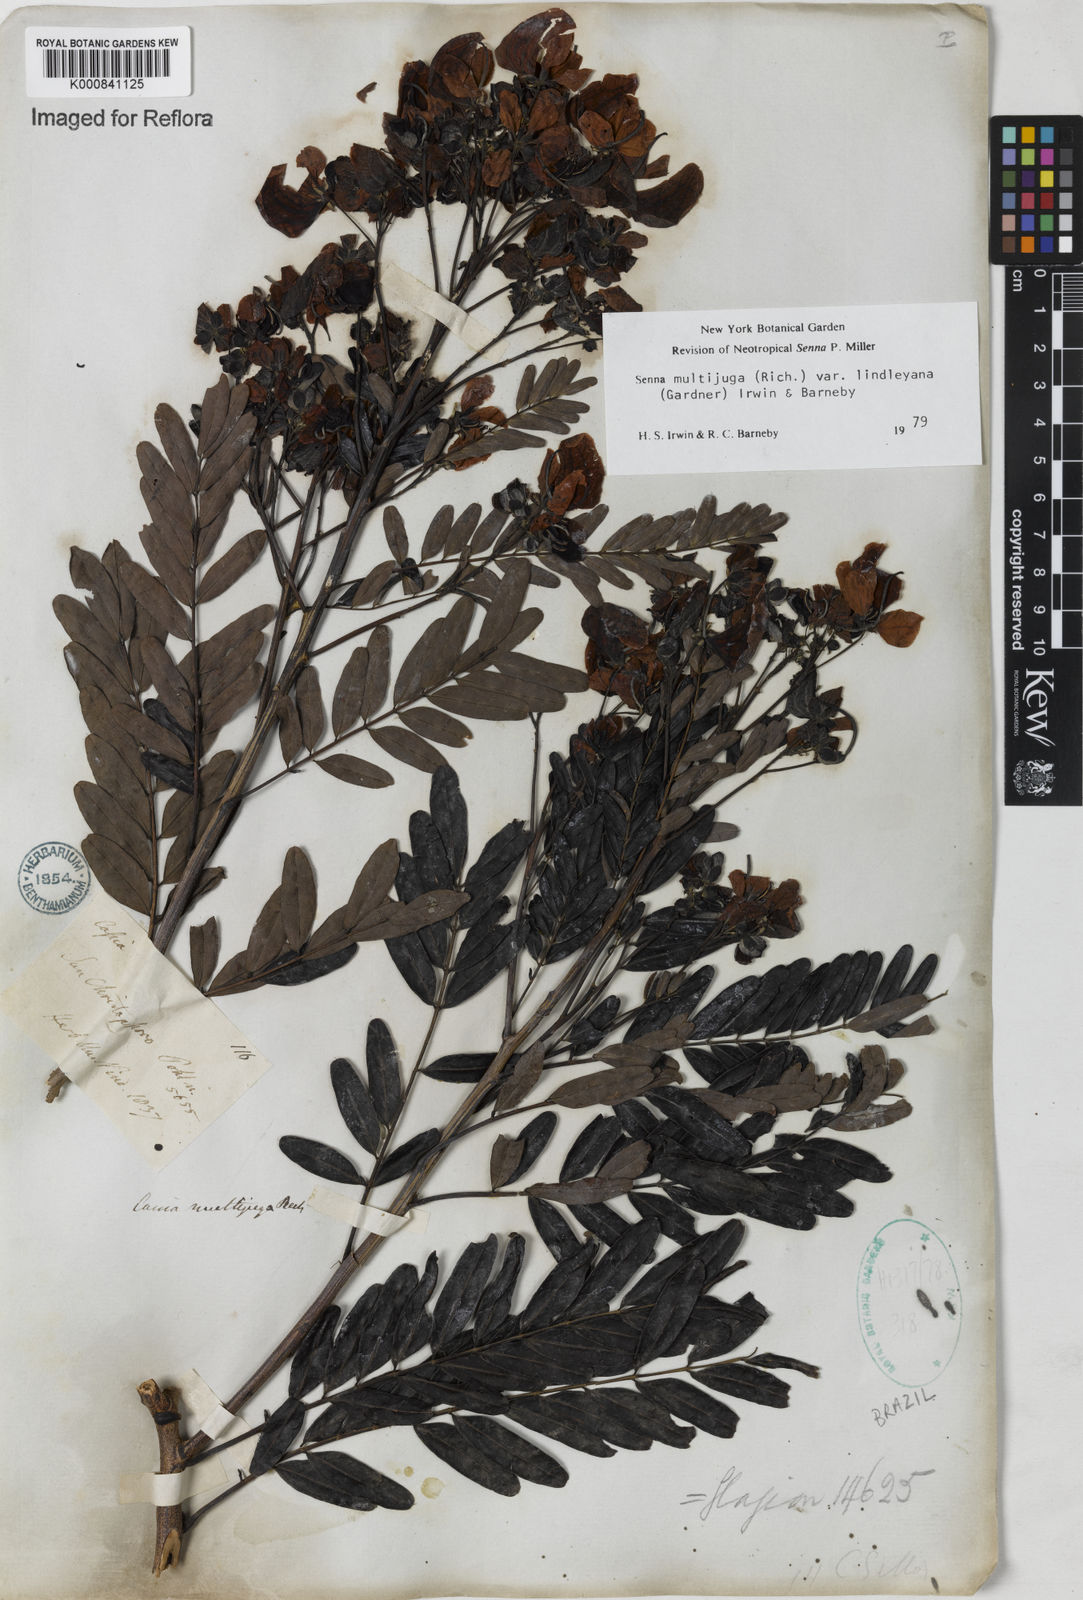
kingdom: Plantae
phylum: Tracheophyta
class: Magnoliopsida
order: Fabales
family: Fabaceae
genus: Senna
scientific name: Senna multijuga
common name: False sicklepod
